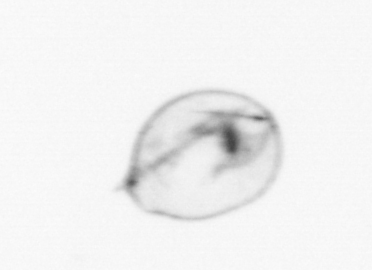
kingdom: Chromista
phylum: Myzozoa
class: Dinophyceae
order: Noctilucales
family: Noctilucaceae
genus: Noctiluca
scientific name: Noctiluca scintillans
